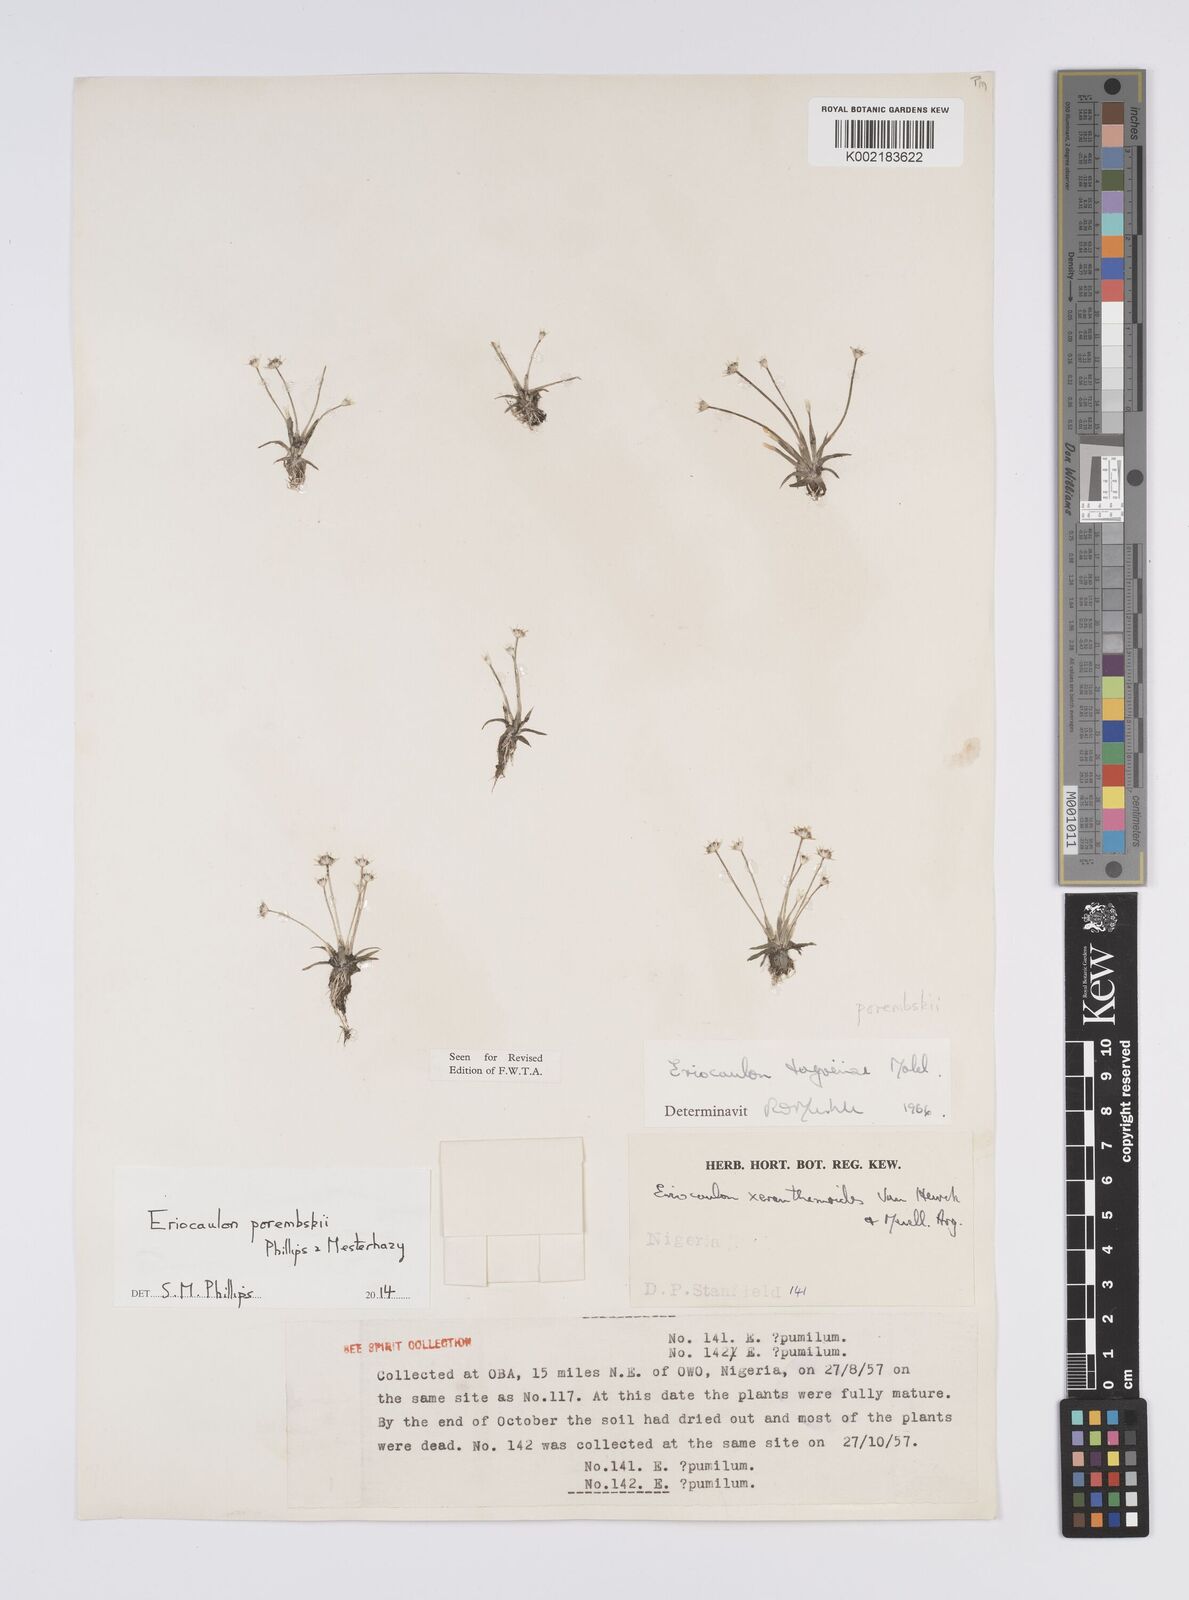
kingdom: Plantae
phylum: Tracheophyta
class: Liliopsida
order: Poales
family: Eriocaulaceae
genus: Eriocaulon
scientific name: Eriocaulon porembskii
